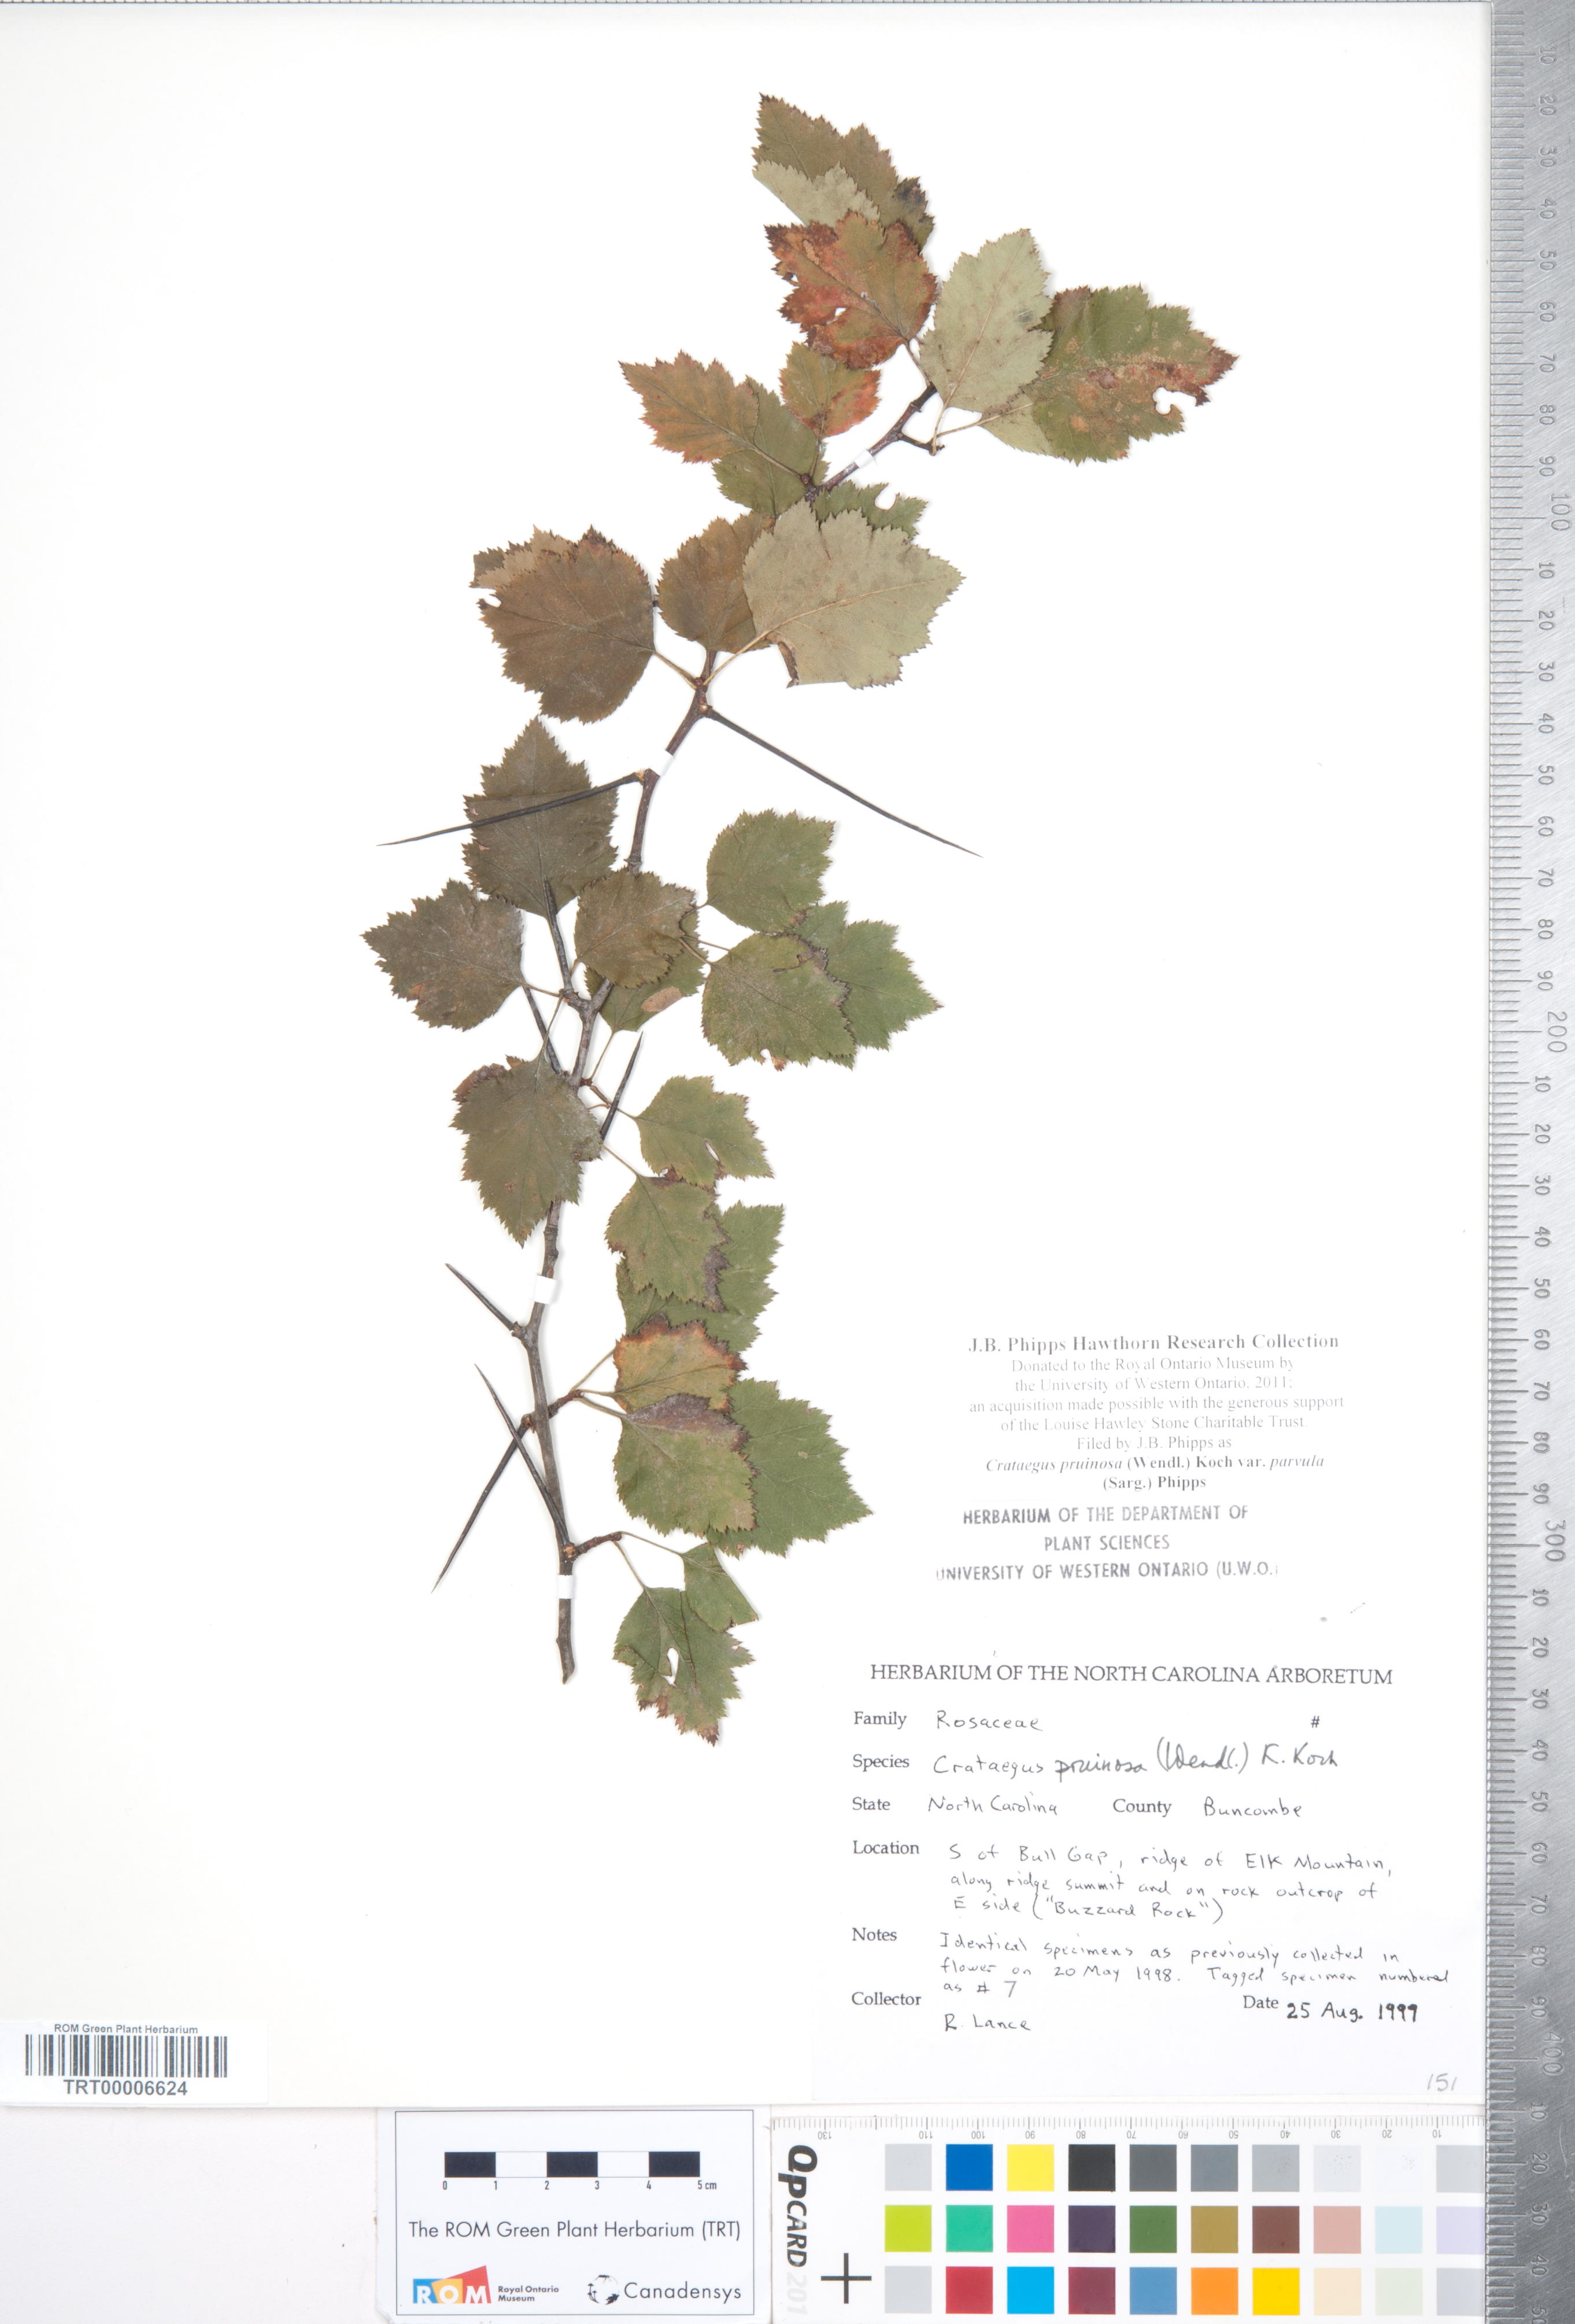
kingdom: Plantae
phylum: Tracheophyta
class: Magnoliopsida
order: Rosales
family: Rosaceae
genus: Crataegus
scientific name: Crataegus pruinosa
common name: Waxy-fruit hawthorn
